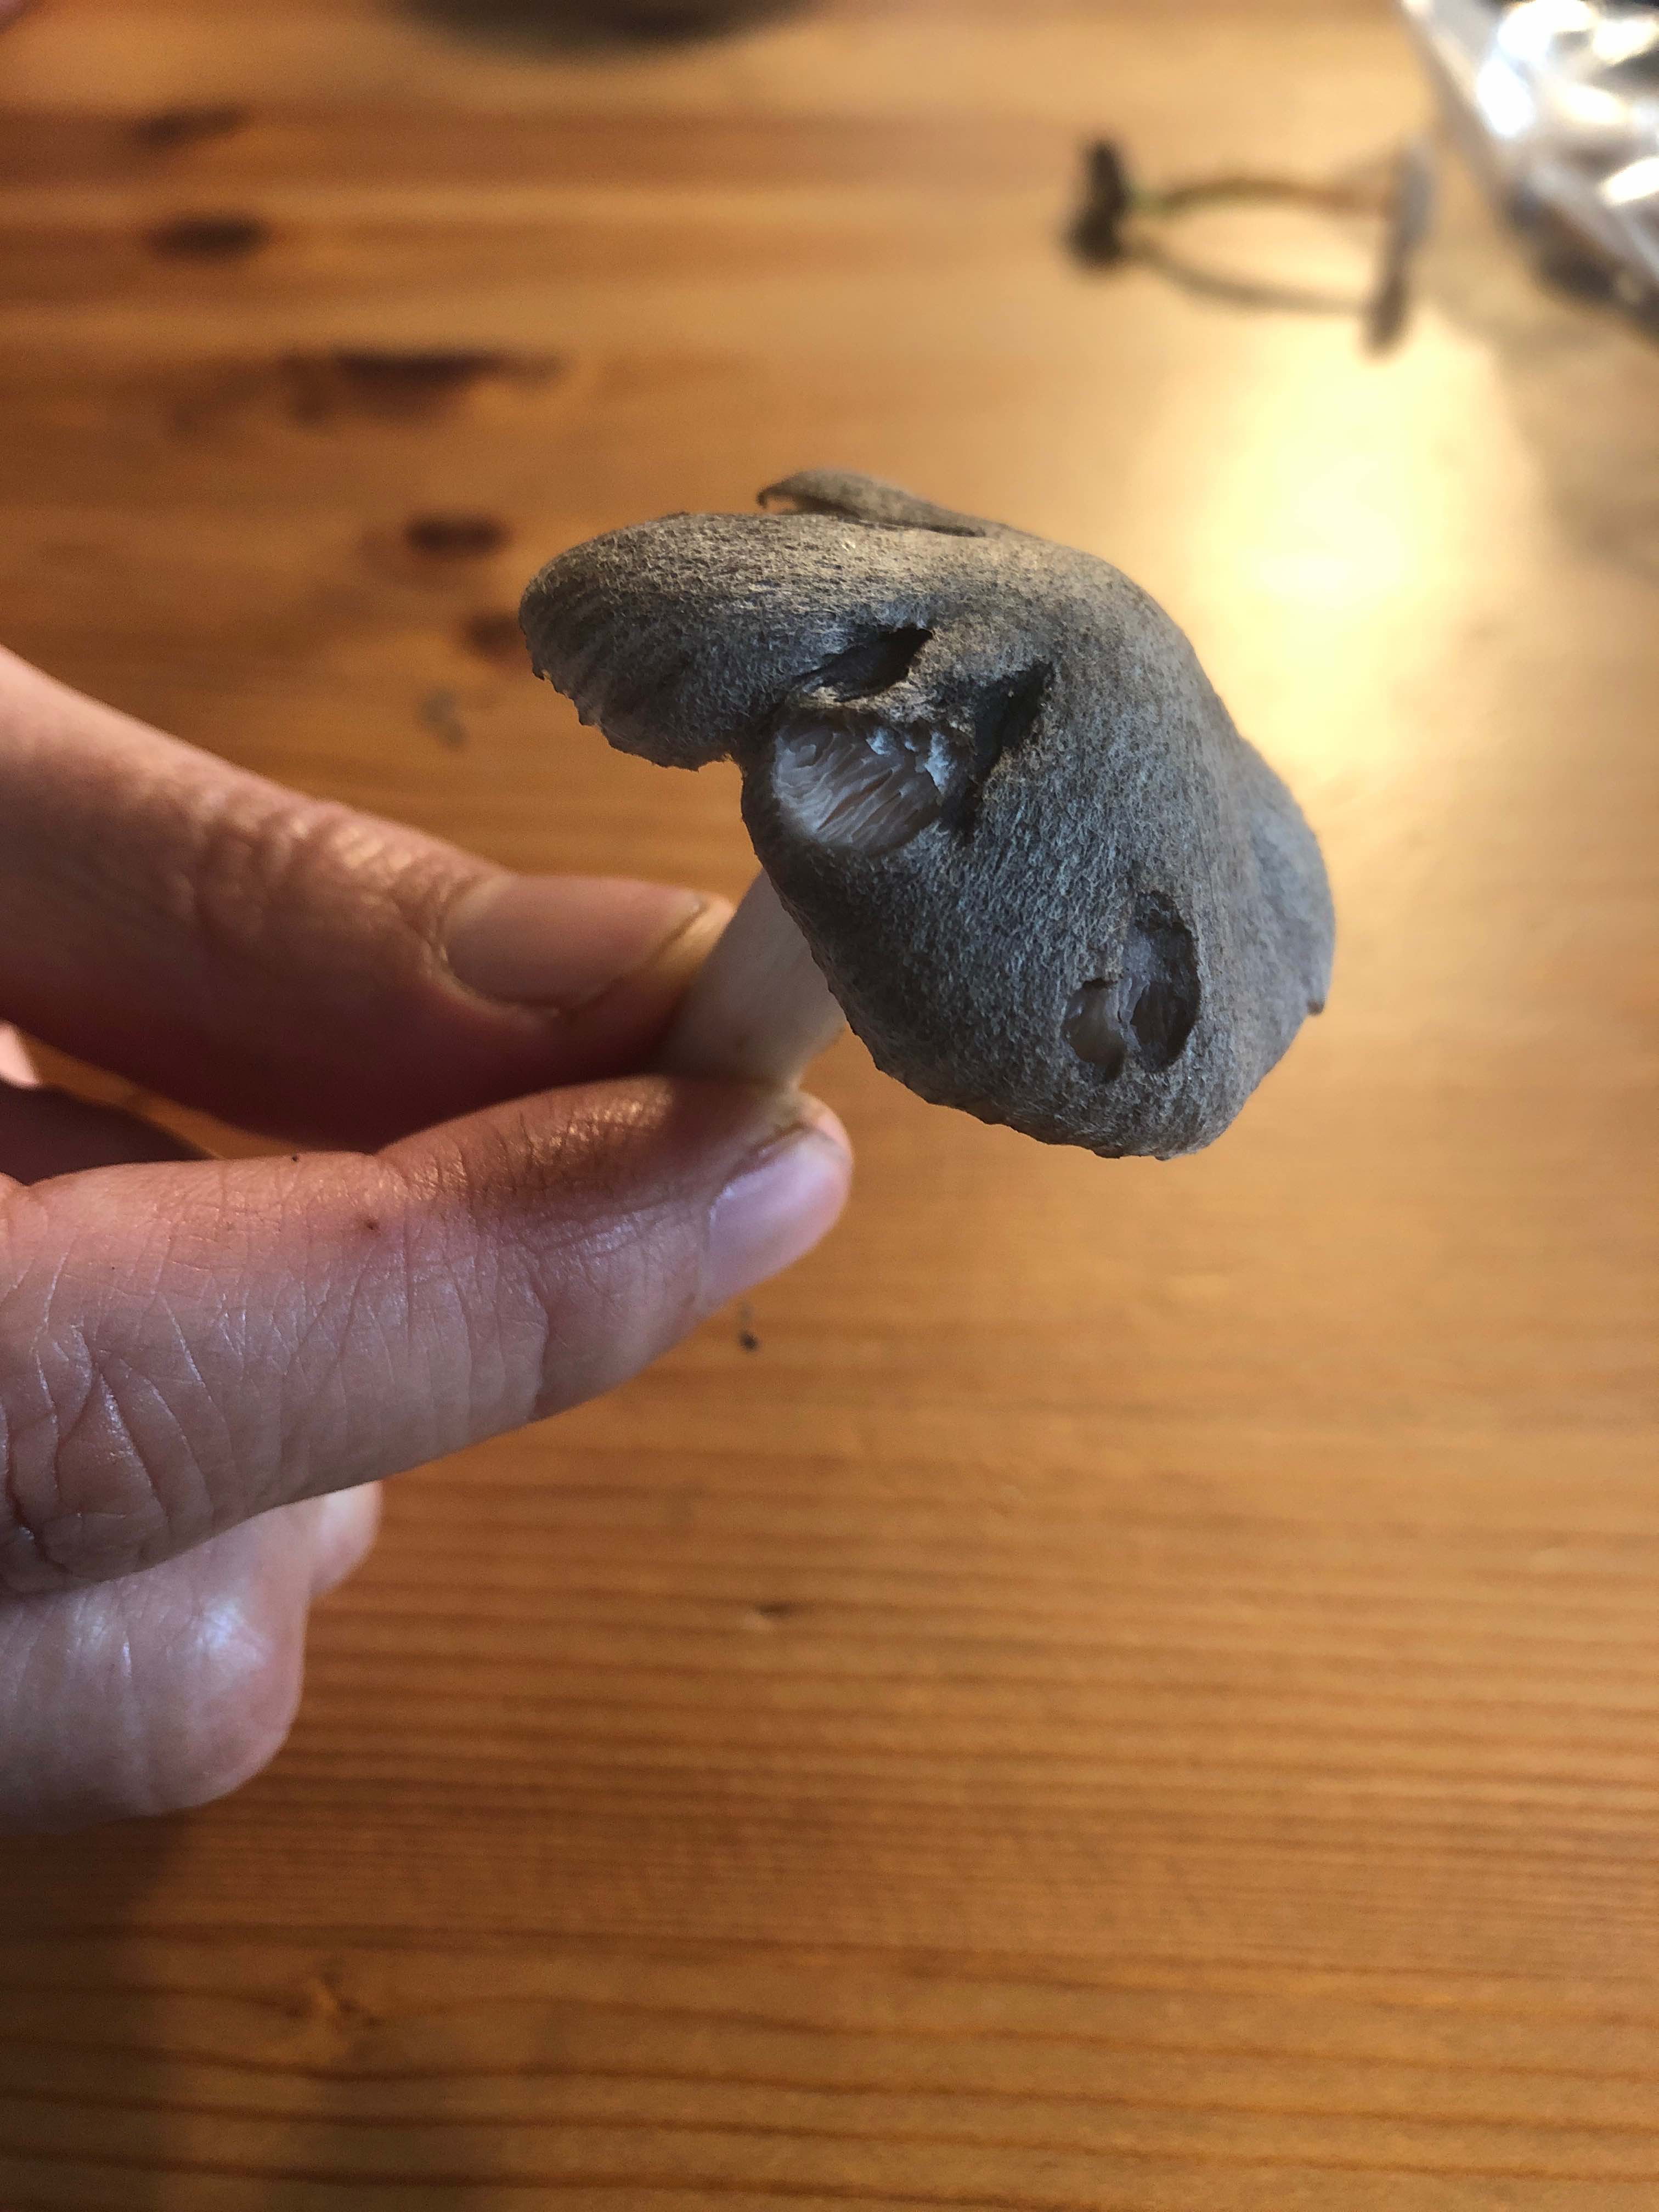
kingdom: Fungi
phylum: Basidiomycota
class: Agaricomycetes
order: Agaricales
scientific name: Agaricales
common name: champignonordenen
